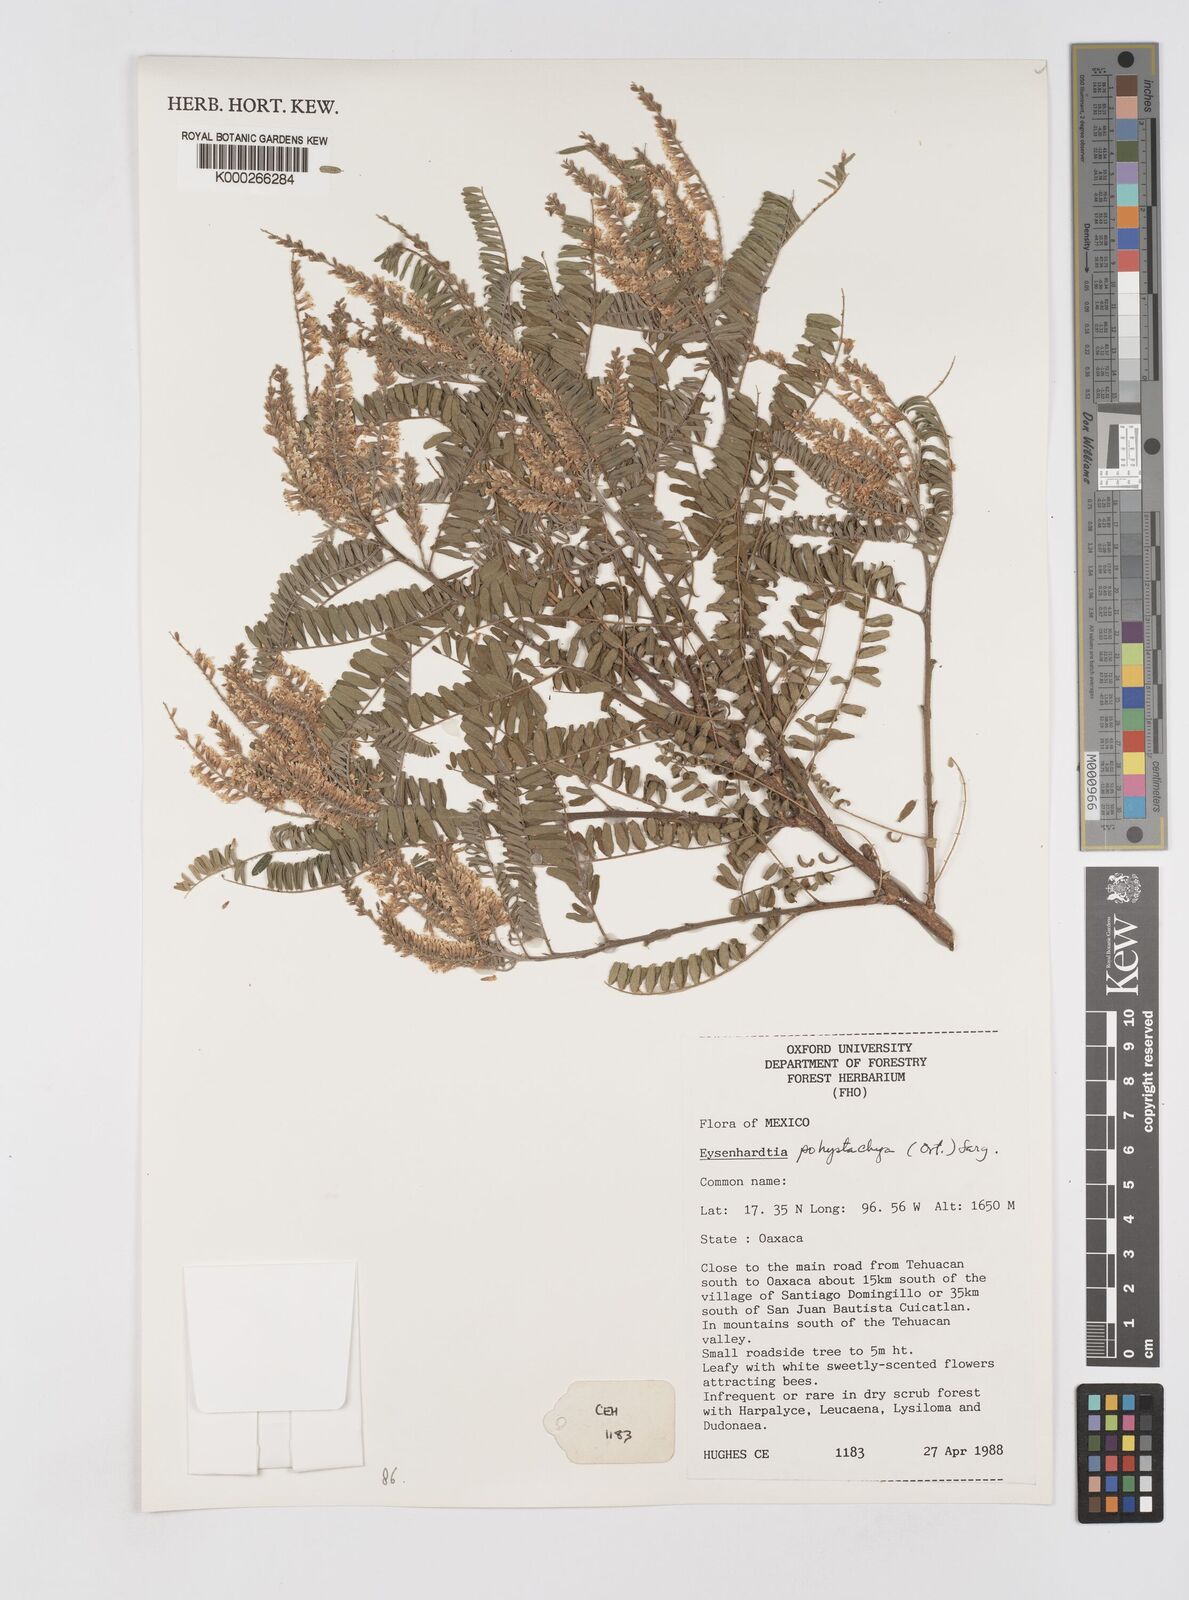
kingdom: Plantae
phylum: Tracheophyta
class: Magnoliopsida
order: Fabales
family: Fabaceae
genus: Eysenhardtia
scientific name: Eysenhardtia polystachya
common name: Kidneywood
